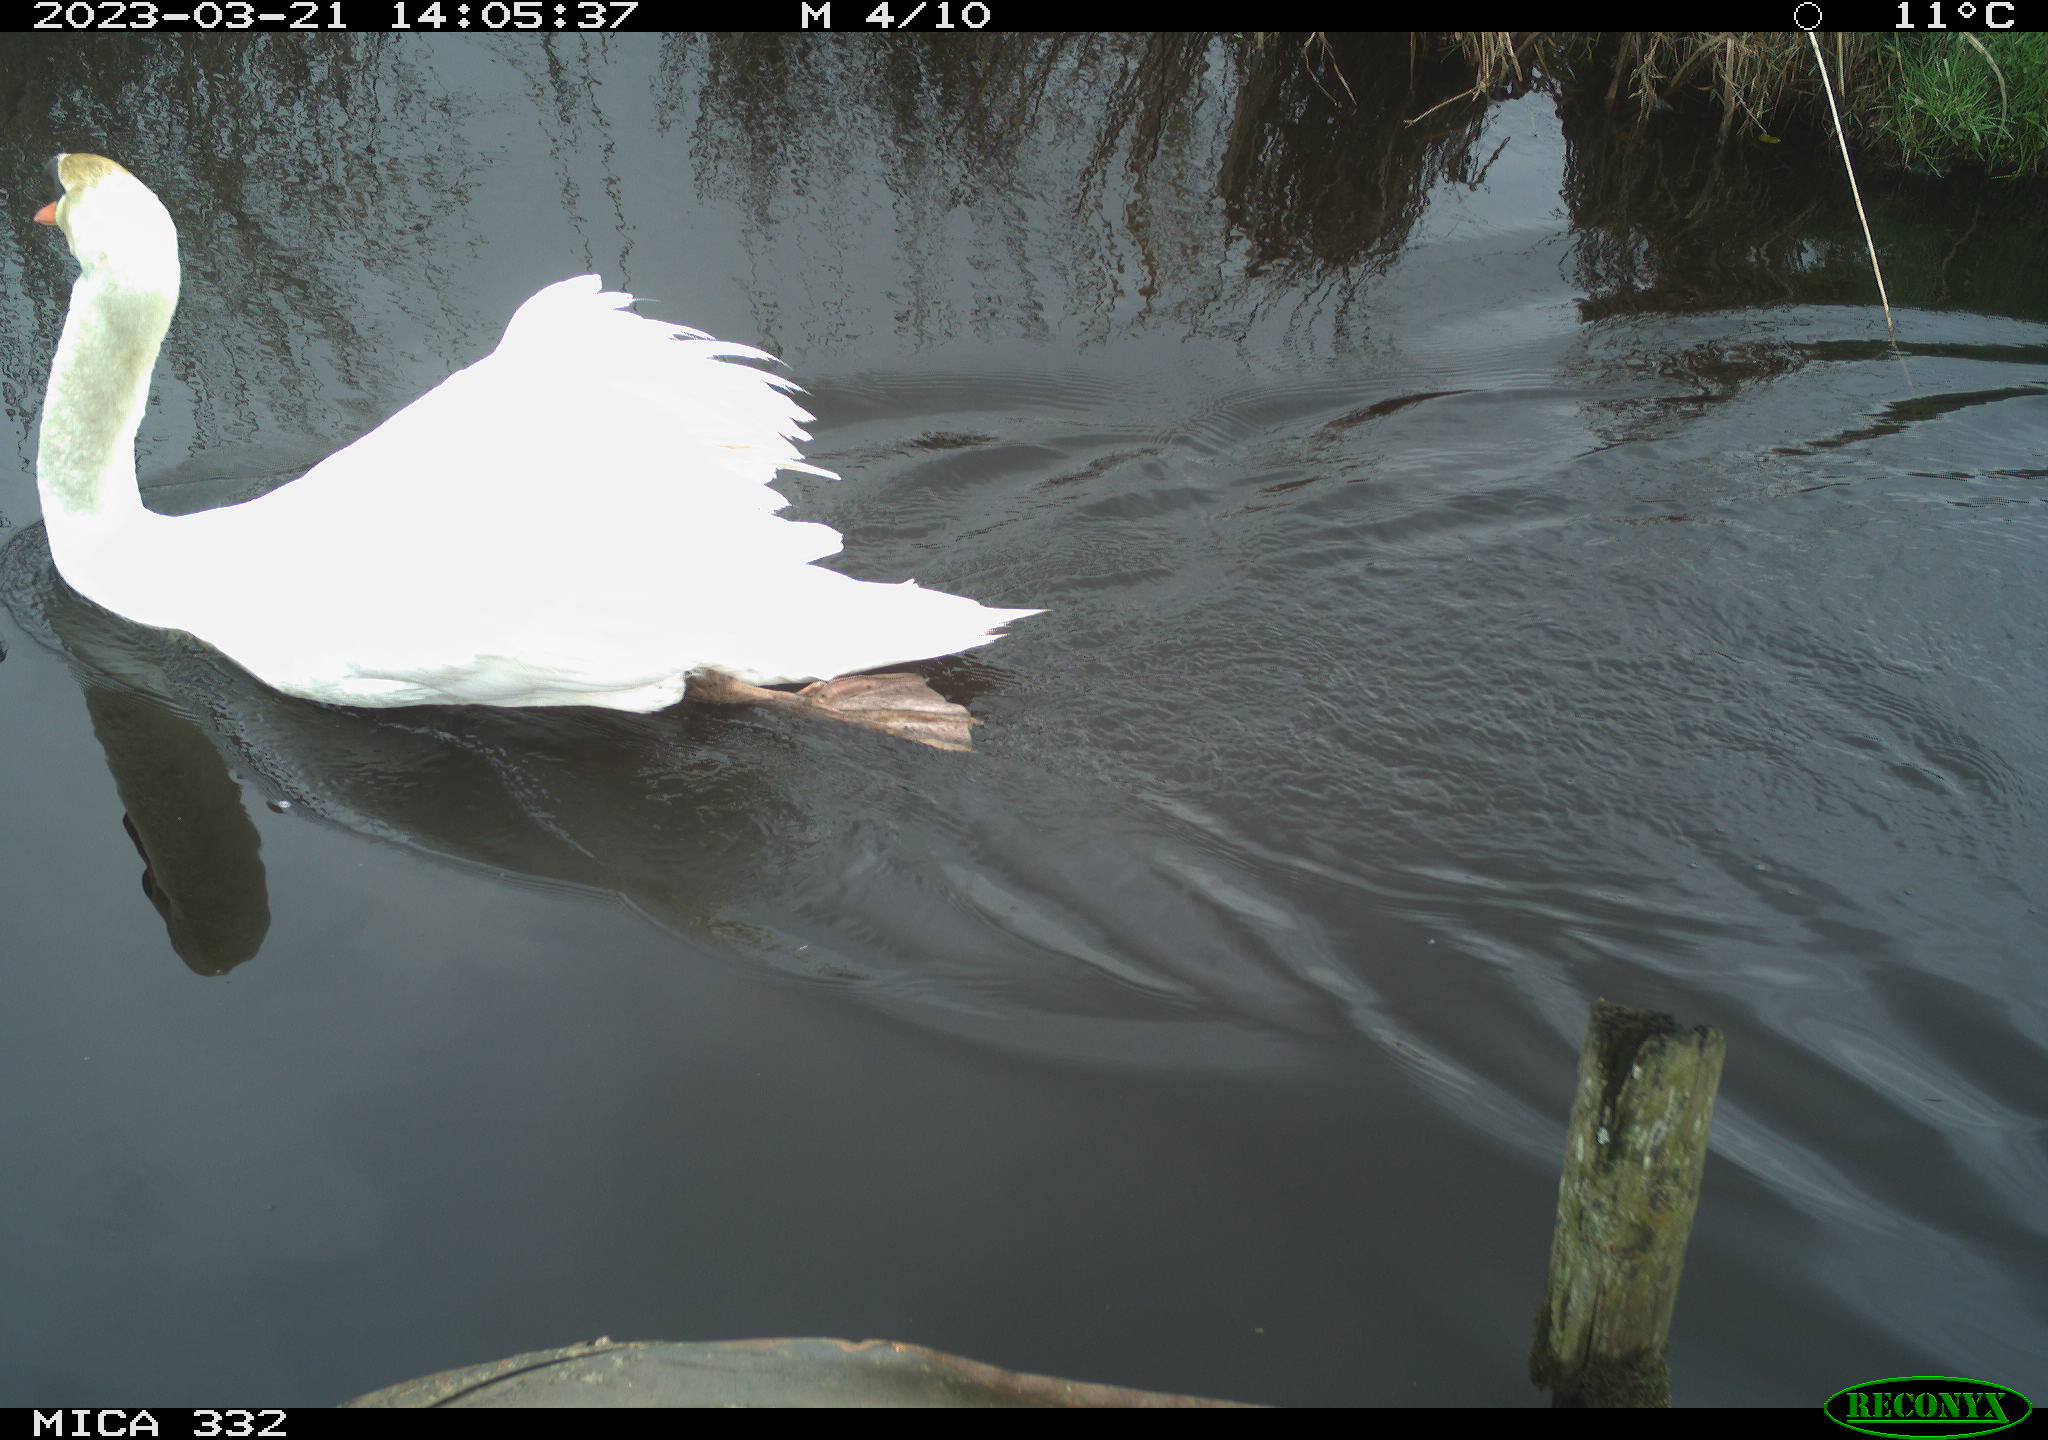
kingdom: Animalia
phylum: Chordata
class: Aves
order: Anseriformes
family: Anatidae
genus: Cygnus
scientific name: Cygnus olor
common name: Mute swan
